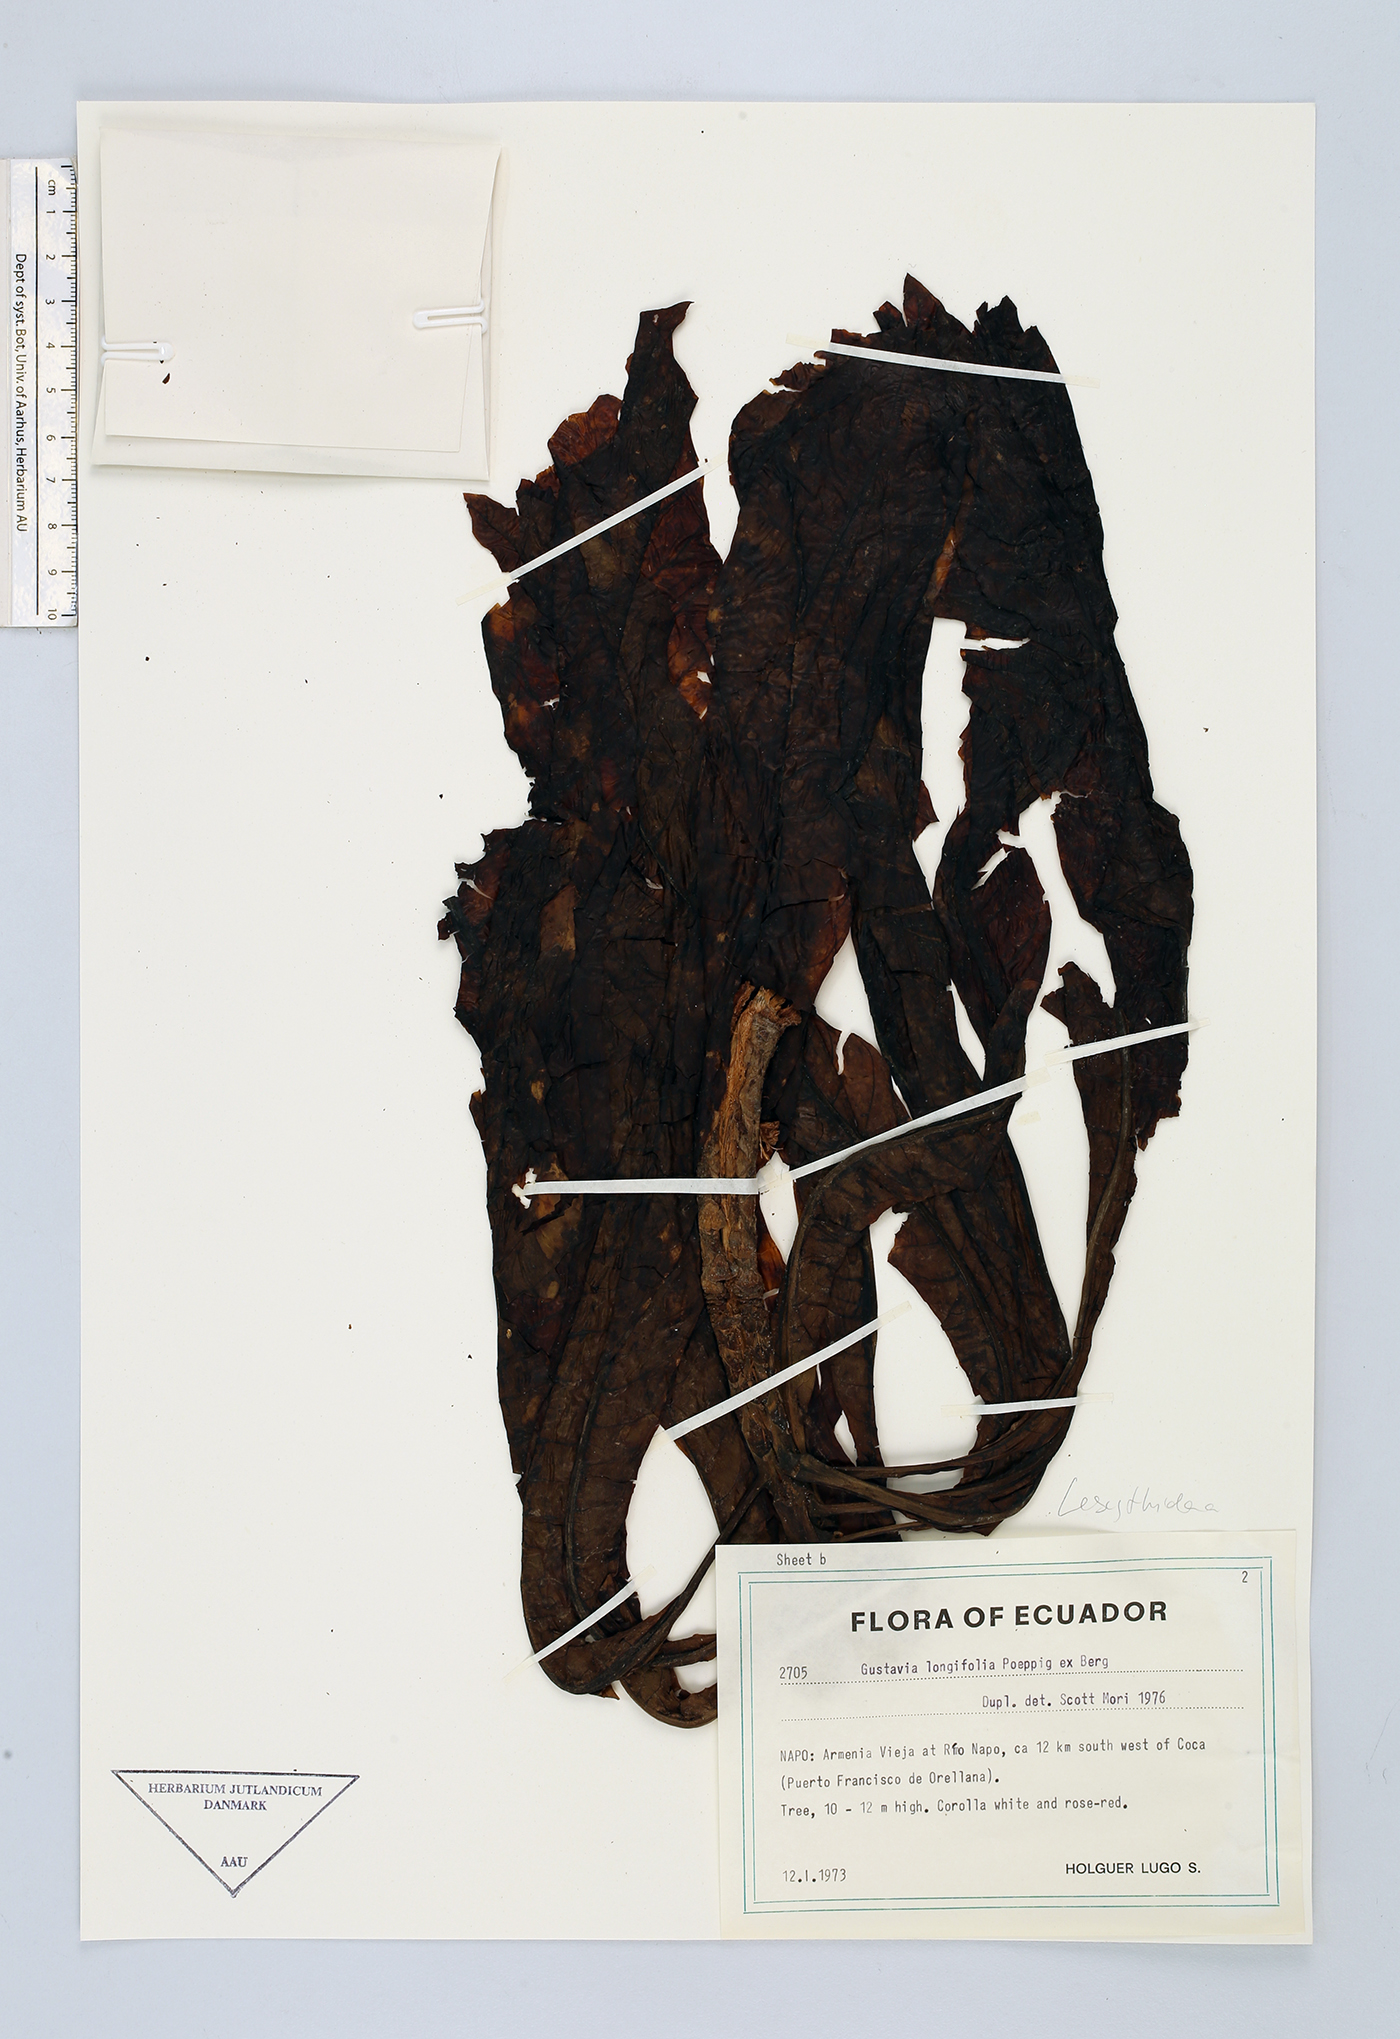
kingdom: Plantae
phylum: Tracheophyta
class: Magnoliopsida
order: Ericales
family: Lecythidaceae
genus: Gustavia
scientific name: Gustavia longifolia
